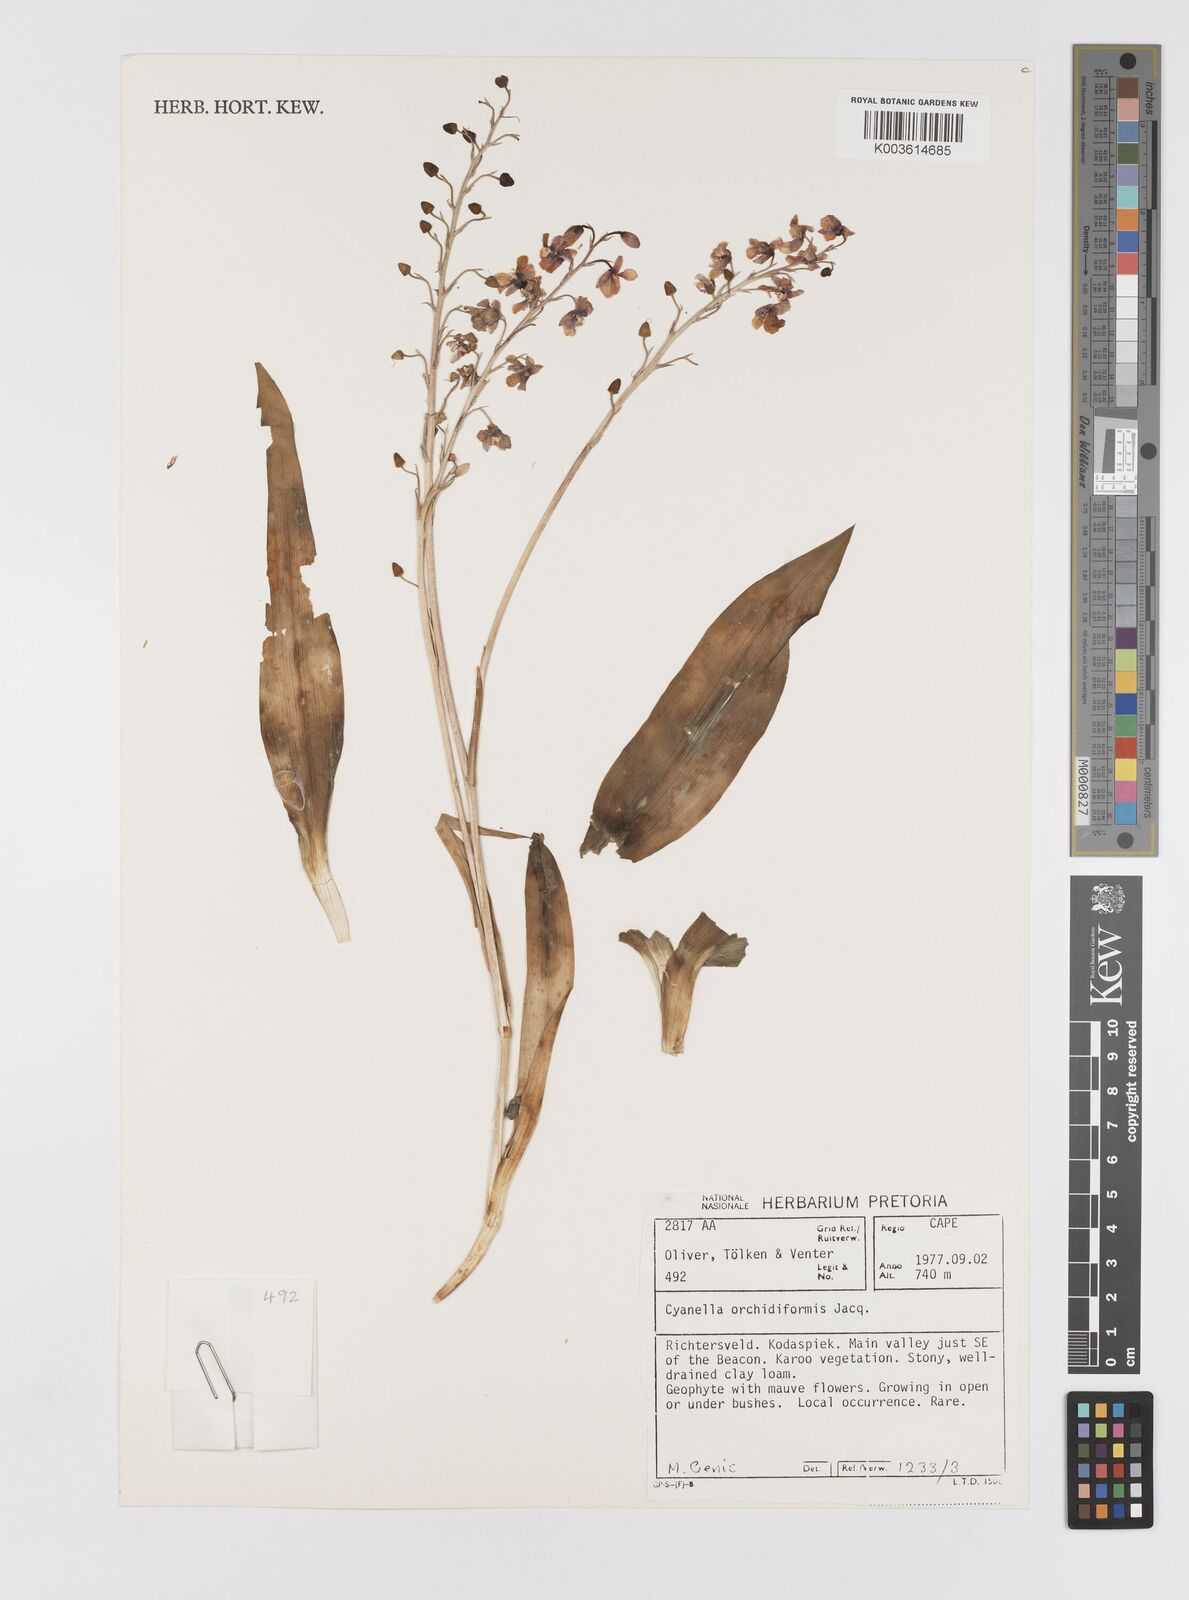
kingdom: Plantae
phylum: Tracheophyta
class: Liliopsida
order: Asparagales
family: Tecophilaeaceae
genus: Cyanella
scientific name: Cyanella orchidiformis
